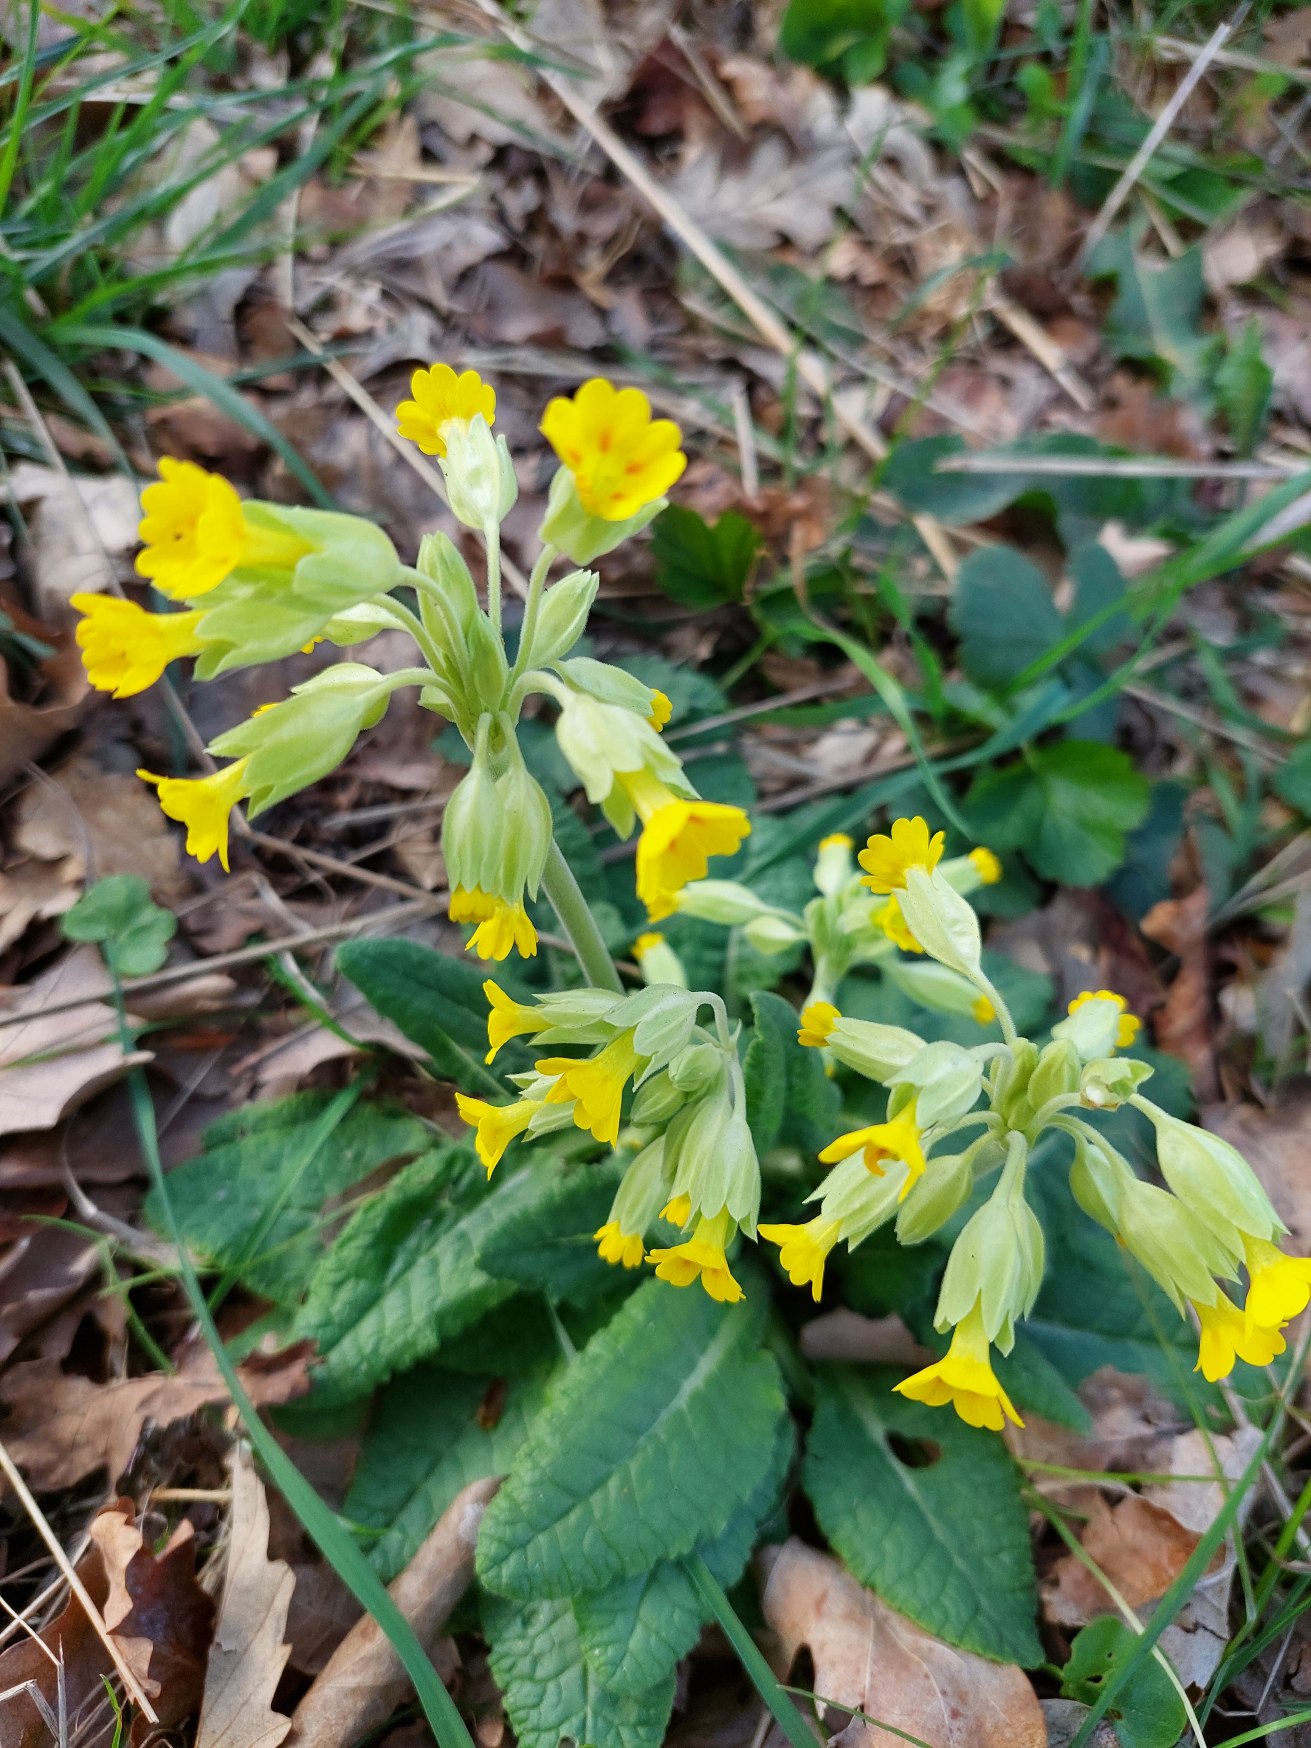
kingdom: Plantae
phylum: Tracheophyta
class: Magnoliopsida
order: Ericales
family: Primulaceae
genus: Primula
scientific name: Primula veris
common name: Hulkravet kodriver
